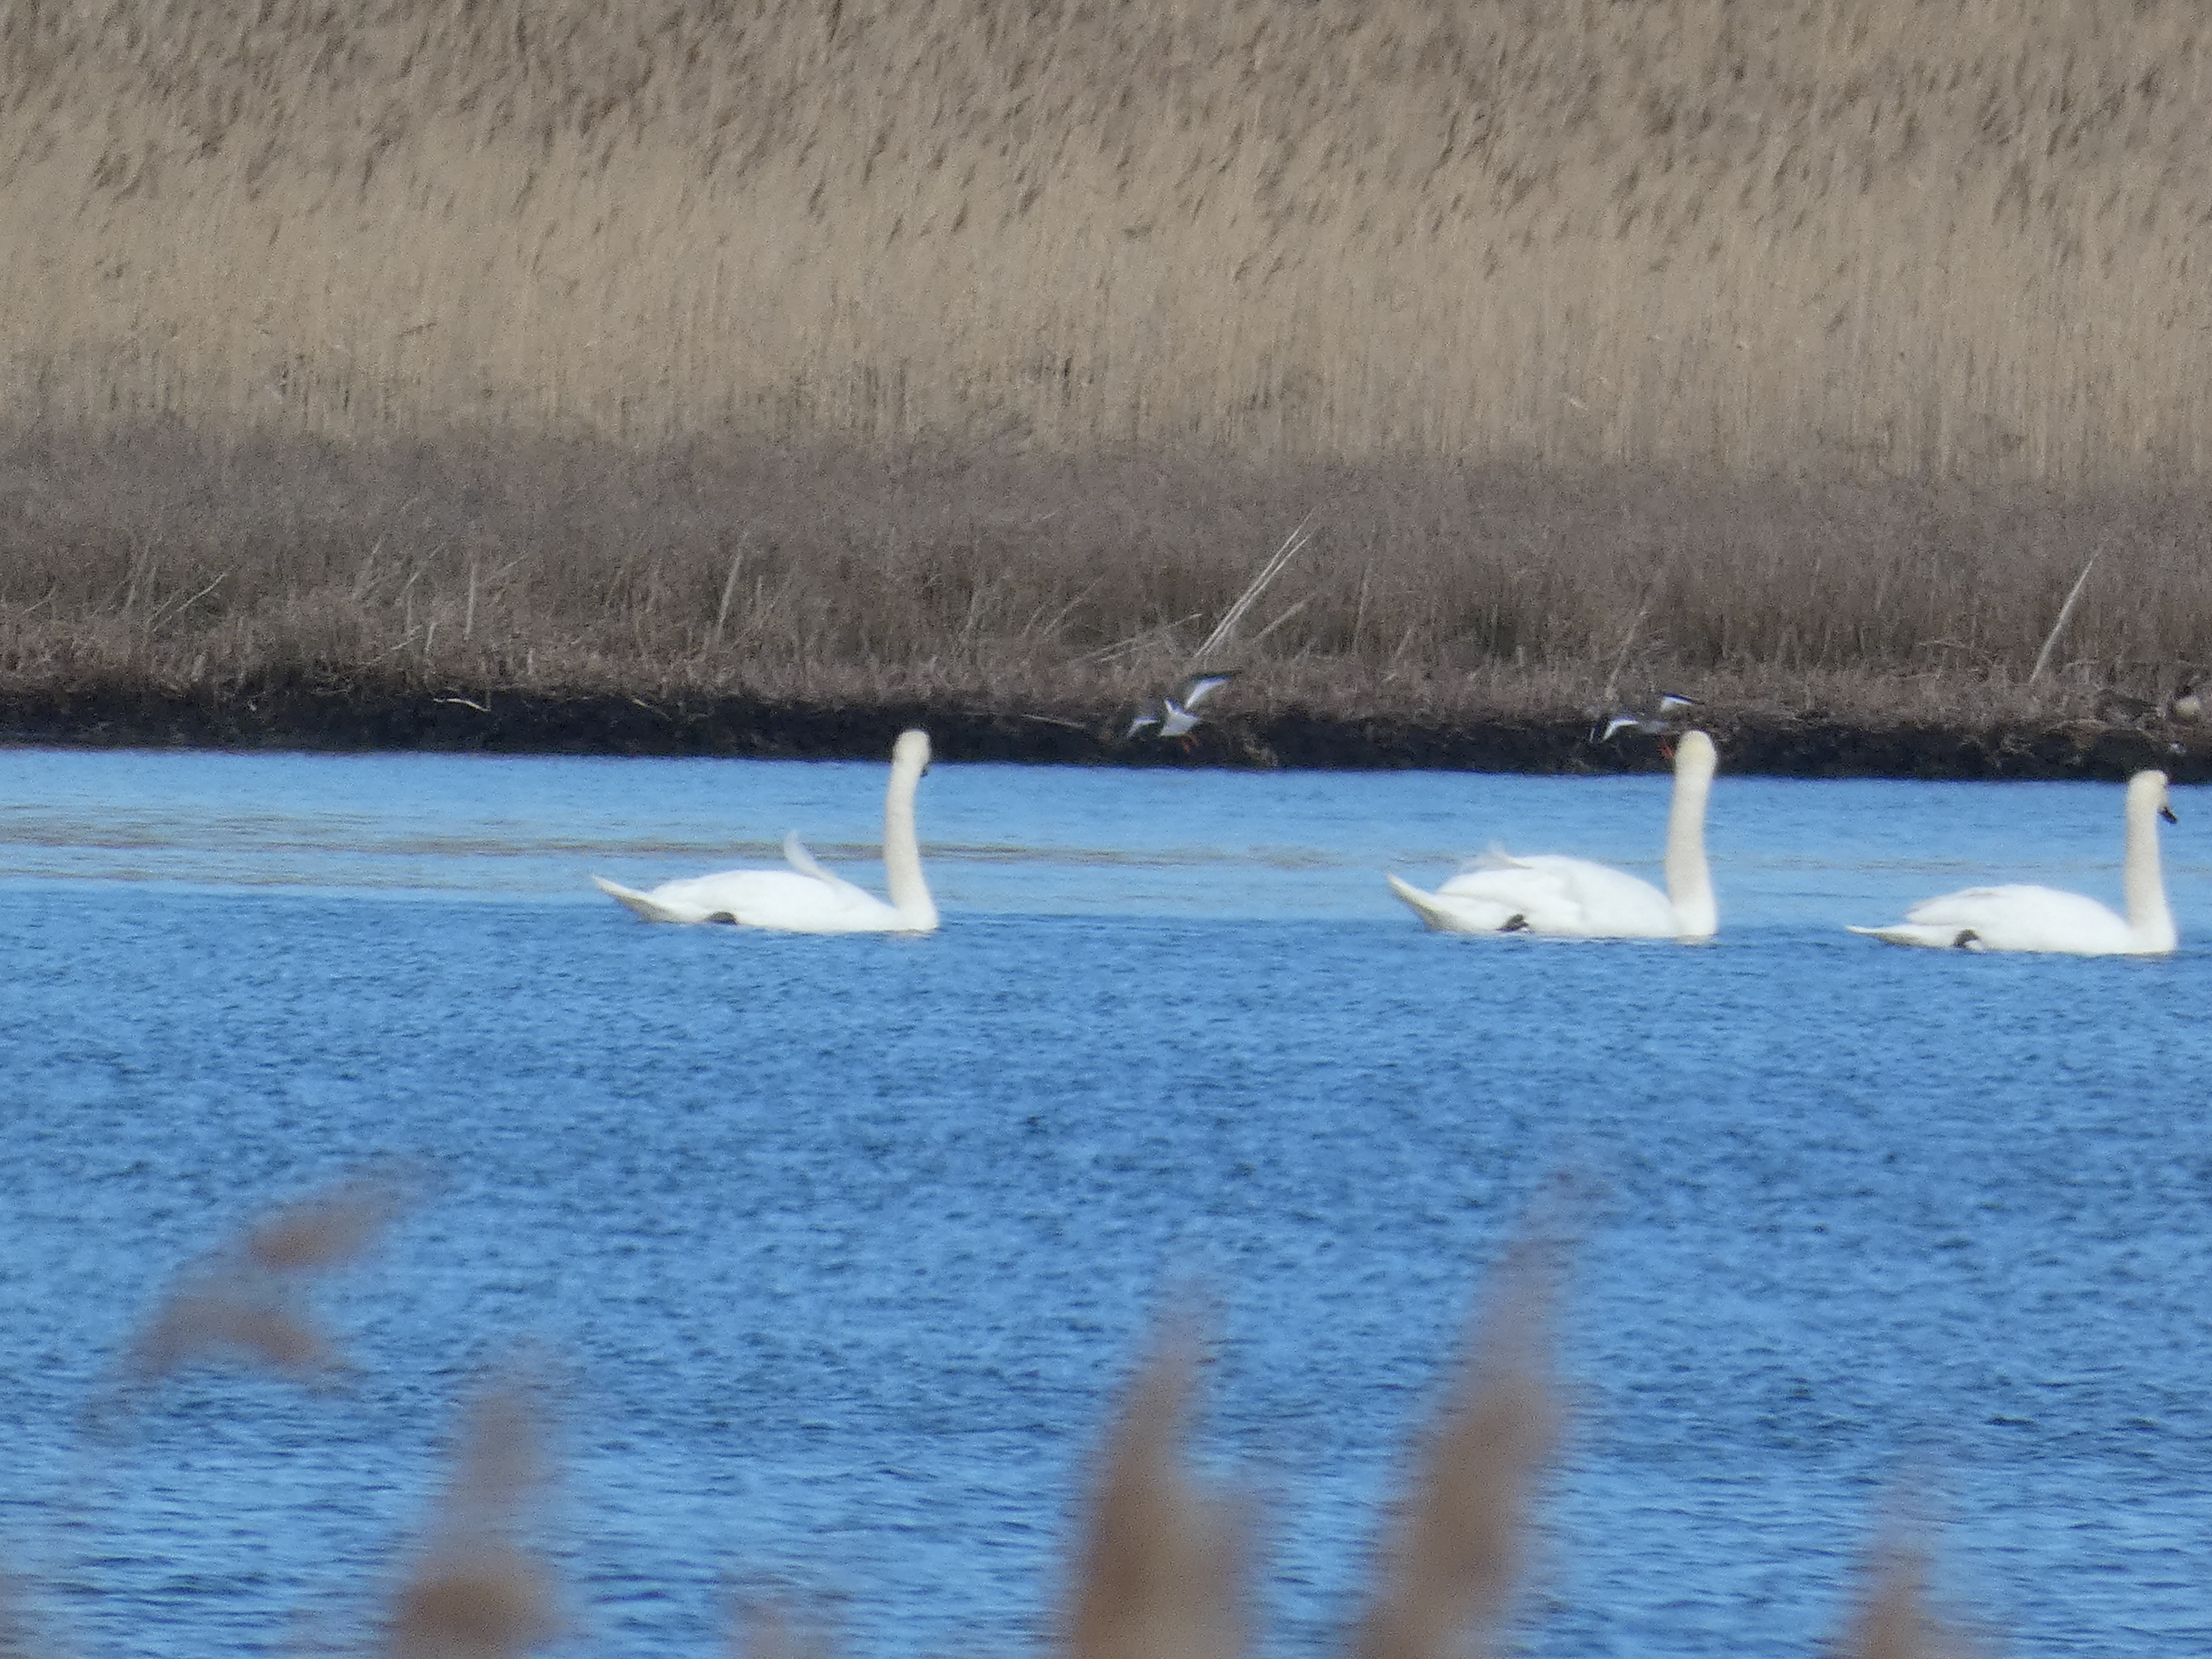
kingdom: Animalia
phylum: Chordata
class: Aves
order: Charadriiformes
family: Scolopacidae
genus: Tringa
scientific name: Tringa totanus
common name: Rødben
